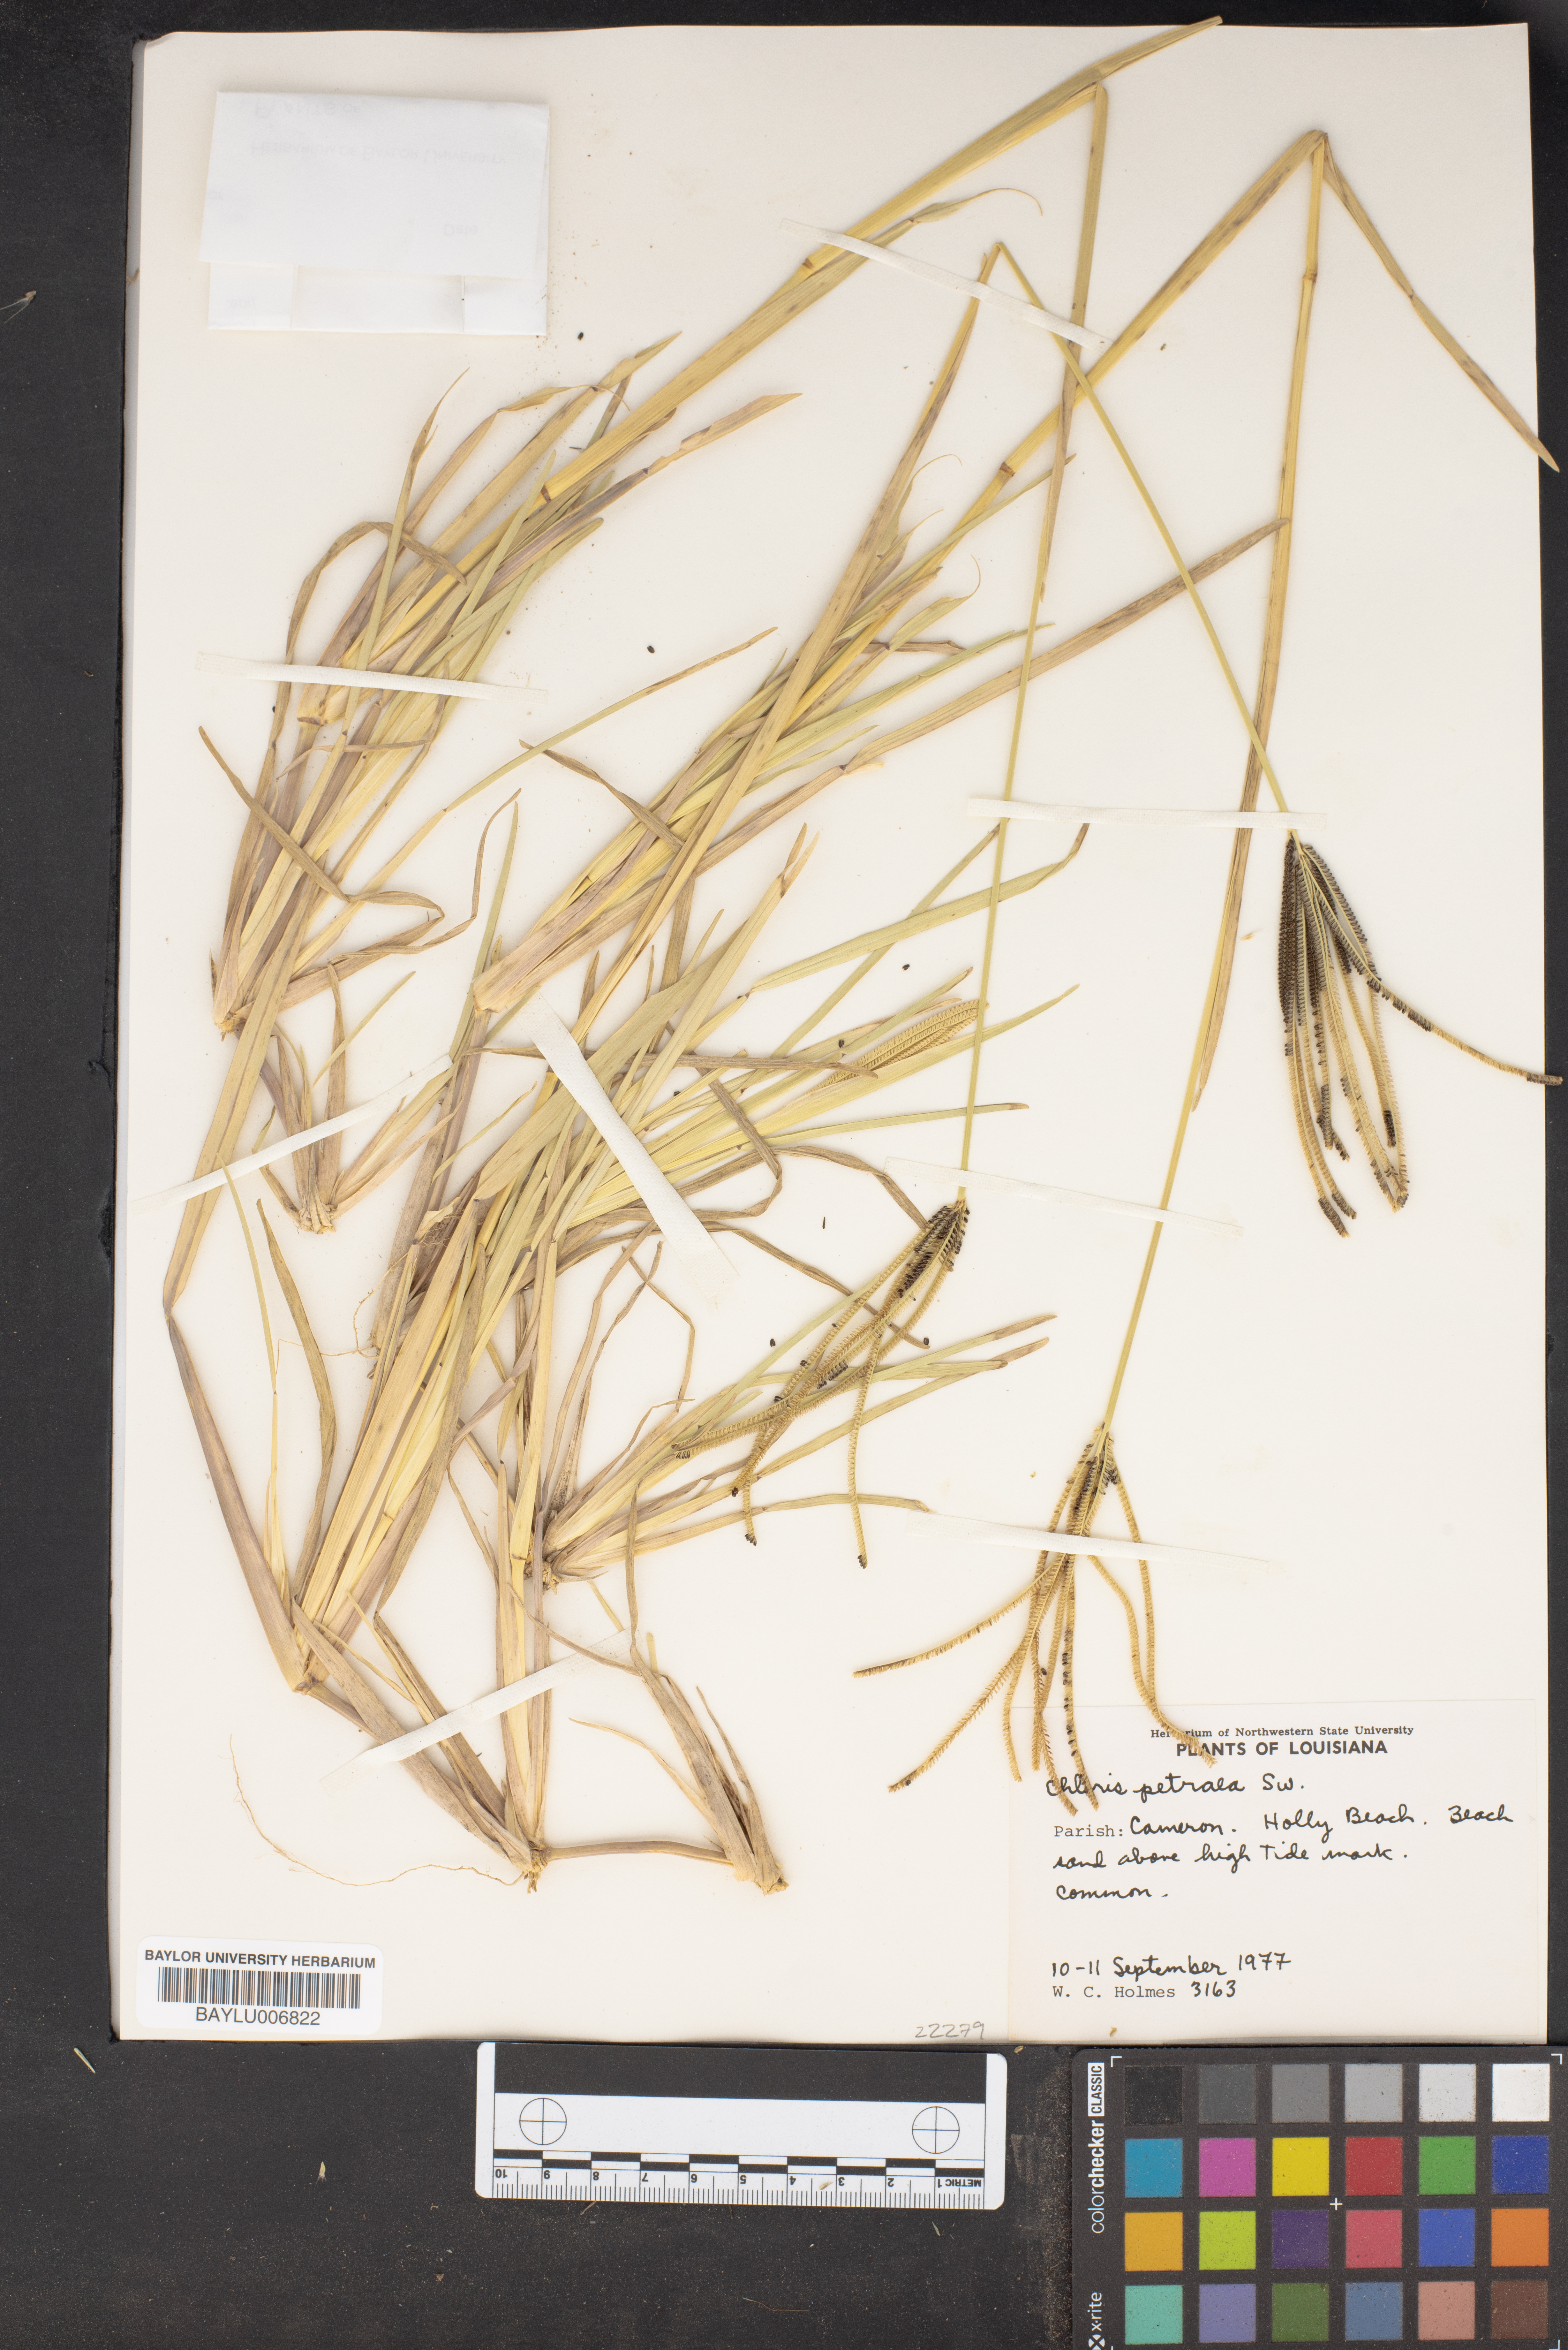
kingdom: Plantae
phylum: Tracheophyta
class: Liliopsida
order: Poales
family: Poaceae
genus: Eustachys
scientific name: Eustachys petraea
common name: Pinewoods fingergrass
